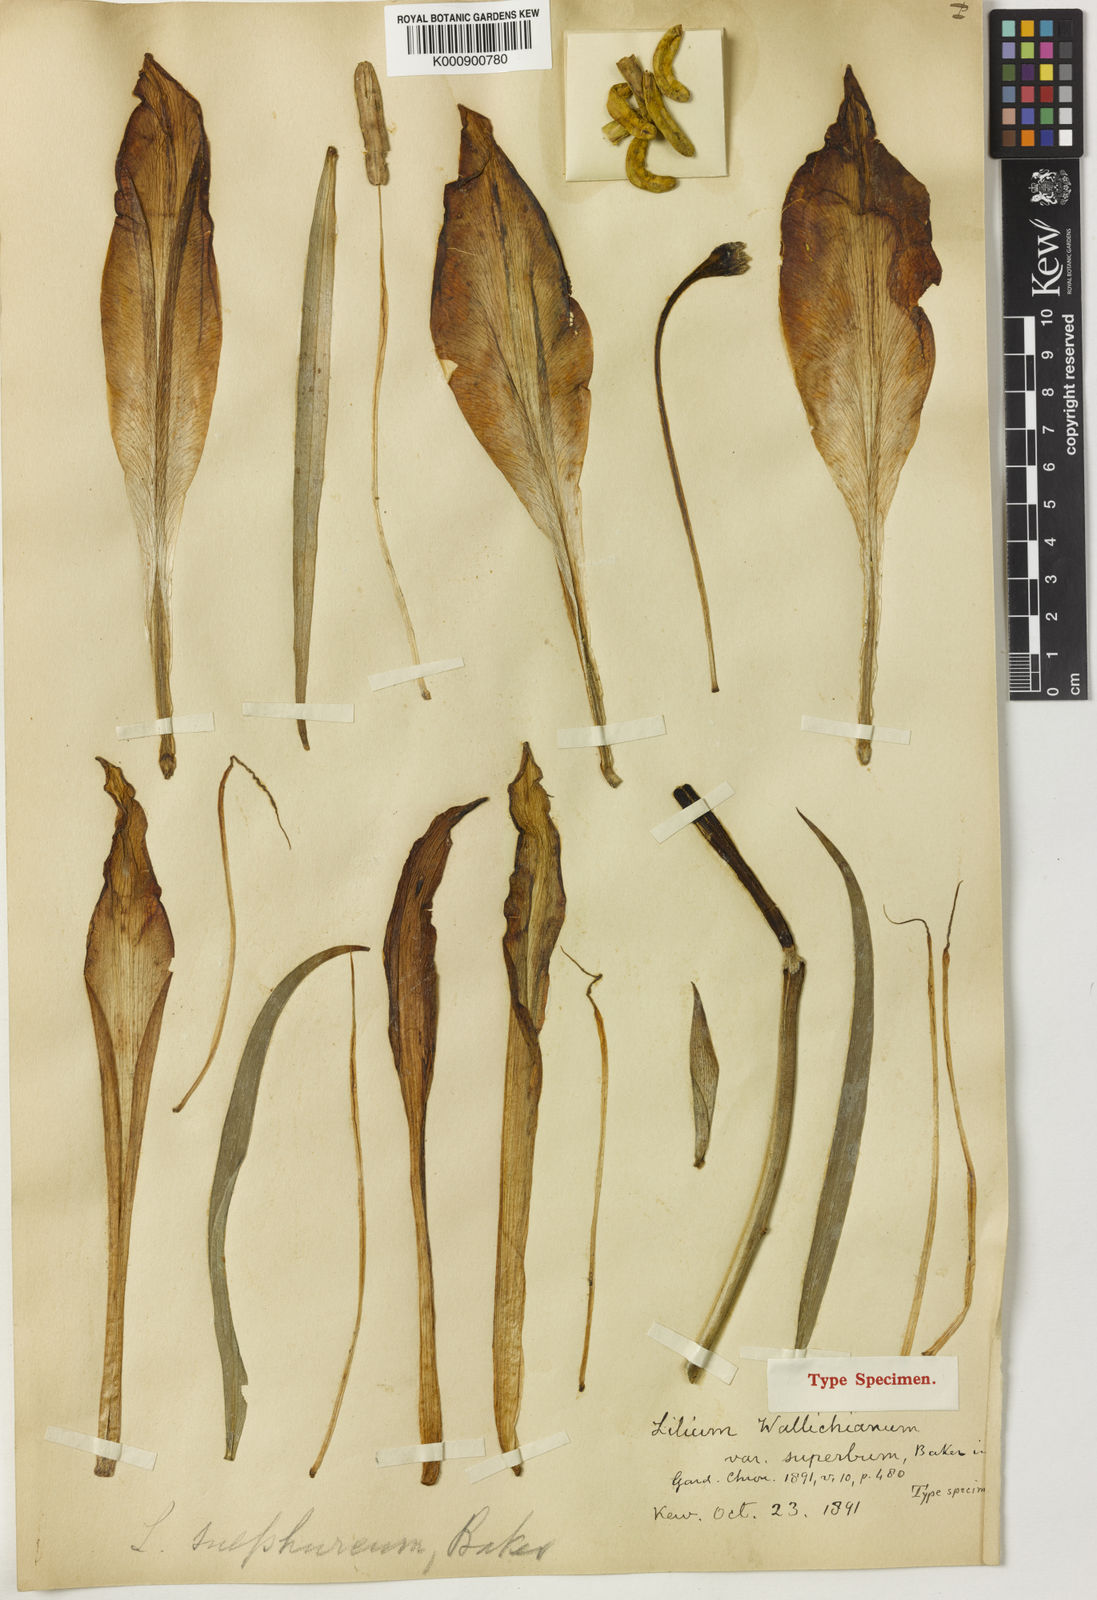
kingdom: Plantae
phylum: Tracheophyta
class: Liliopsida
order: Liliales
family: Liliaceae
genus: Lilium
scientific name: Lilium sulphureum
